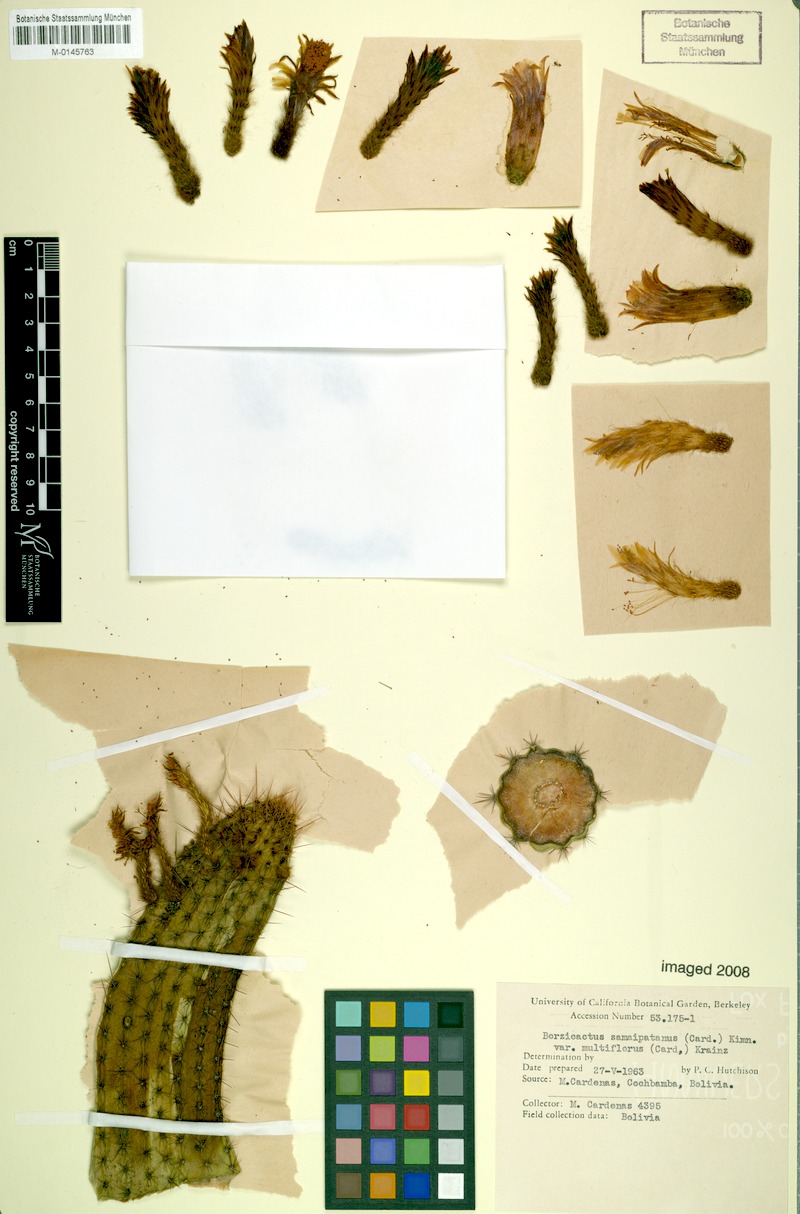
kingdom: Plantae
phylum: Tracheophyta
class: Magnoliopsida
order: Caryophyllales
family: Cactaceae
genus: Borzicactus
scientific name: Borzicactus samaipatanus
